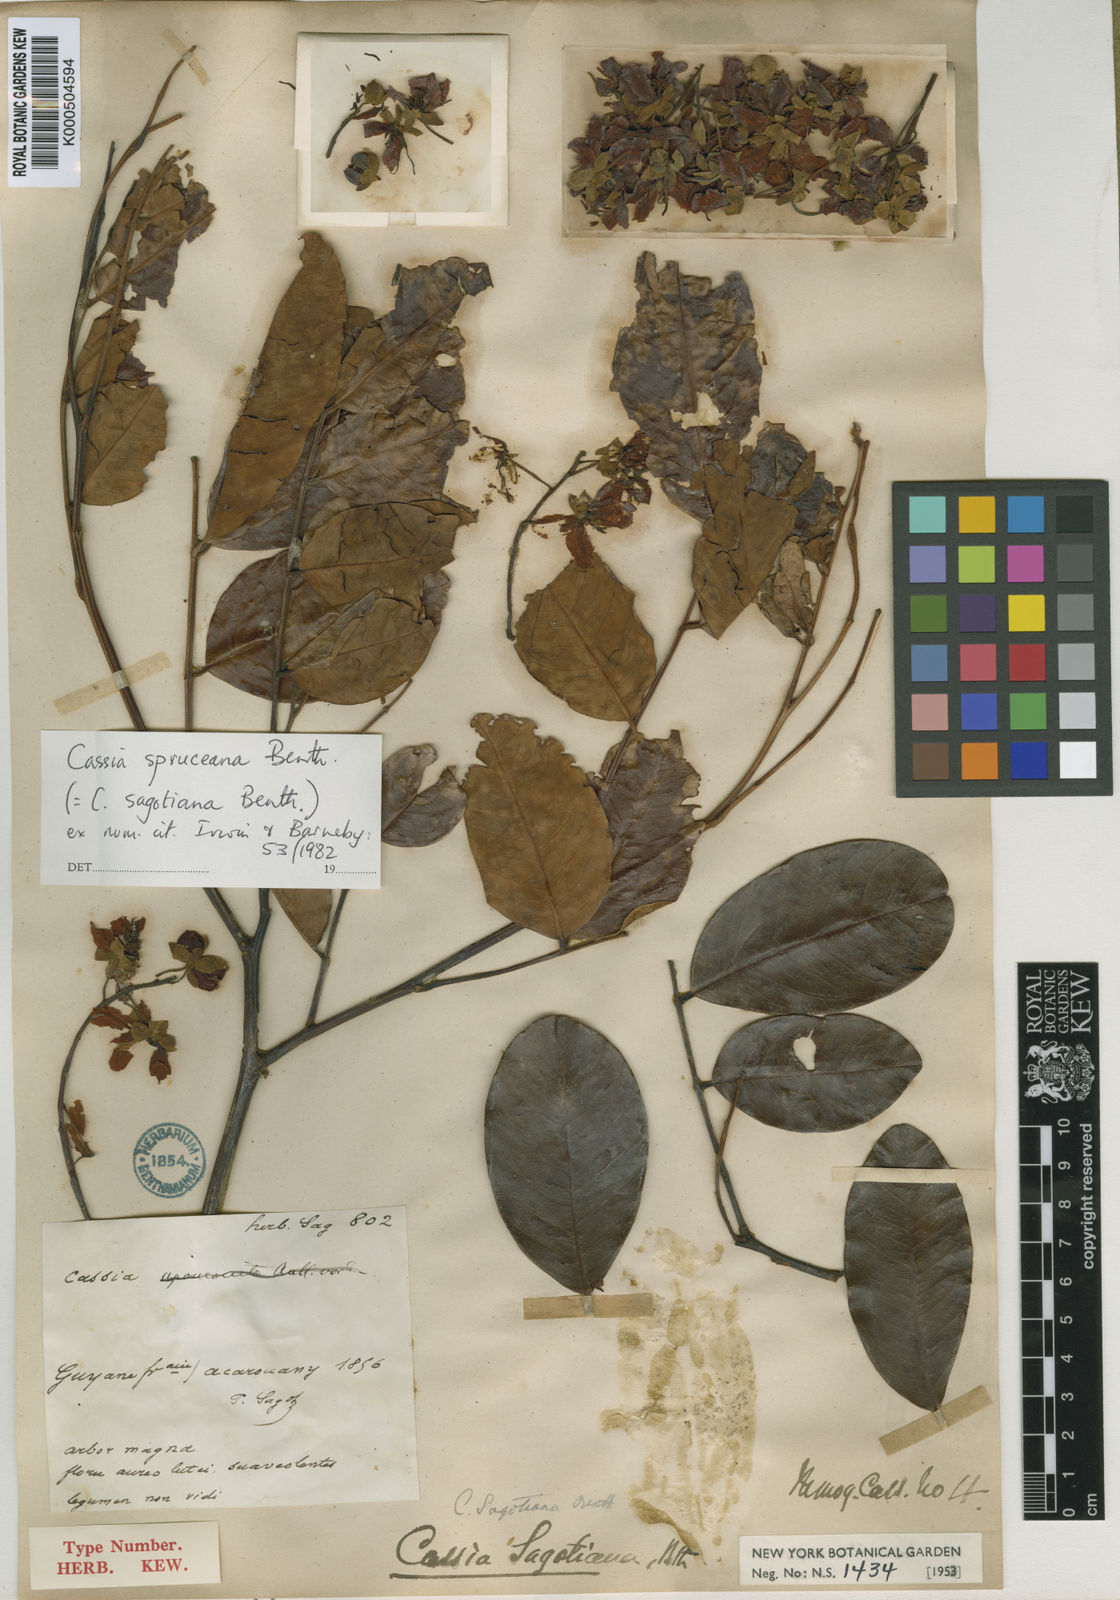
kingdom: Plantae
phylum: Tracheophyta
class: Magnoliopsida
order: Fabales
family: Fabaceae
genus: Cassia
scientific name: Cassia spruceana
